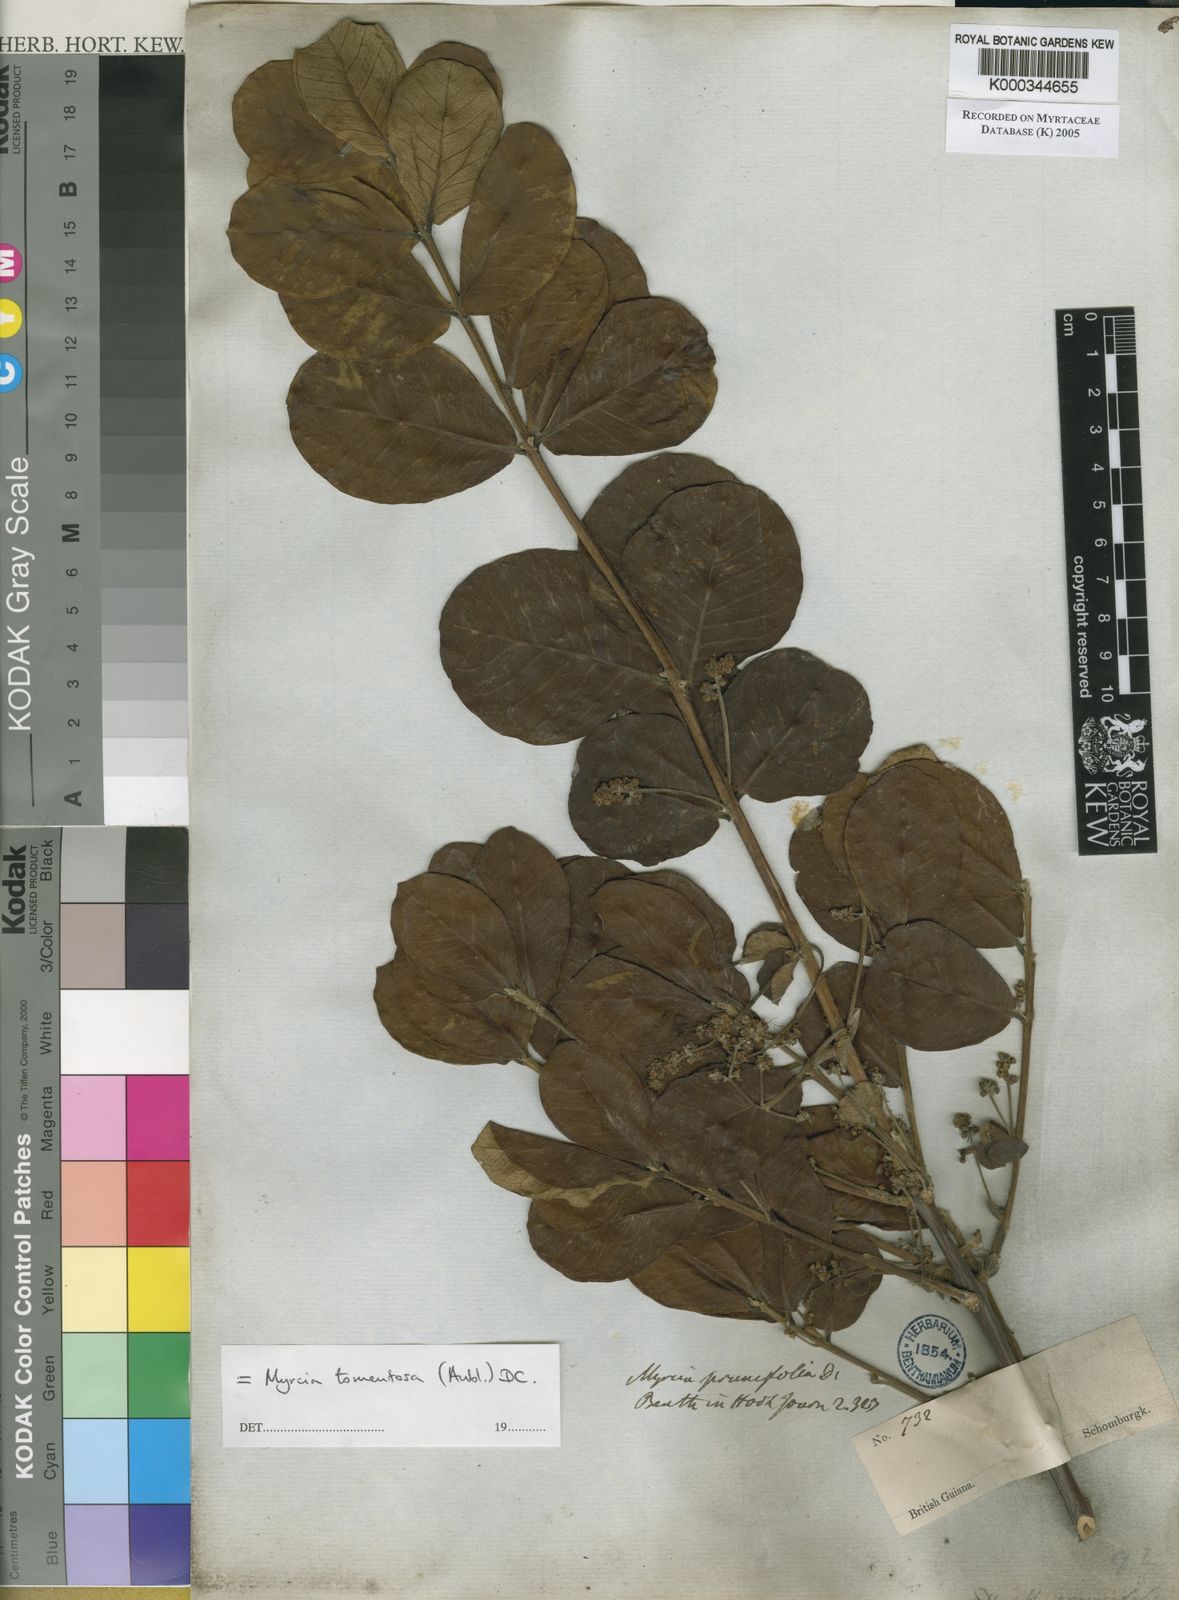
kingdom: Plantae
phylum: Tracheophyta
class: Magnoliopsida
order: Myrtales
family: Myrtaceae
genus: Myrcia
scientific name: Myrcia tomentosa
